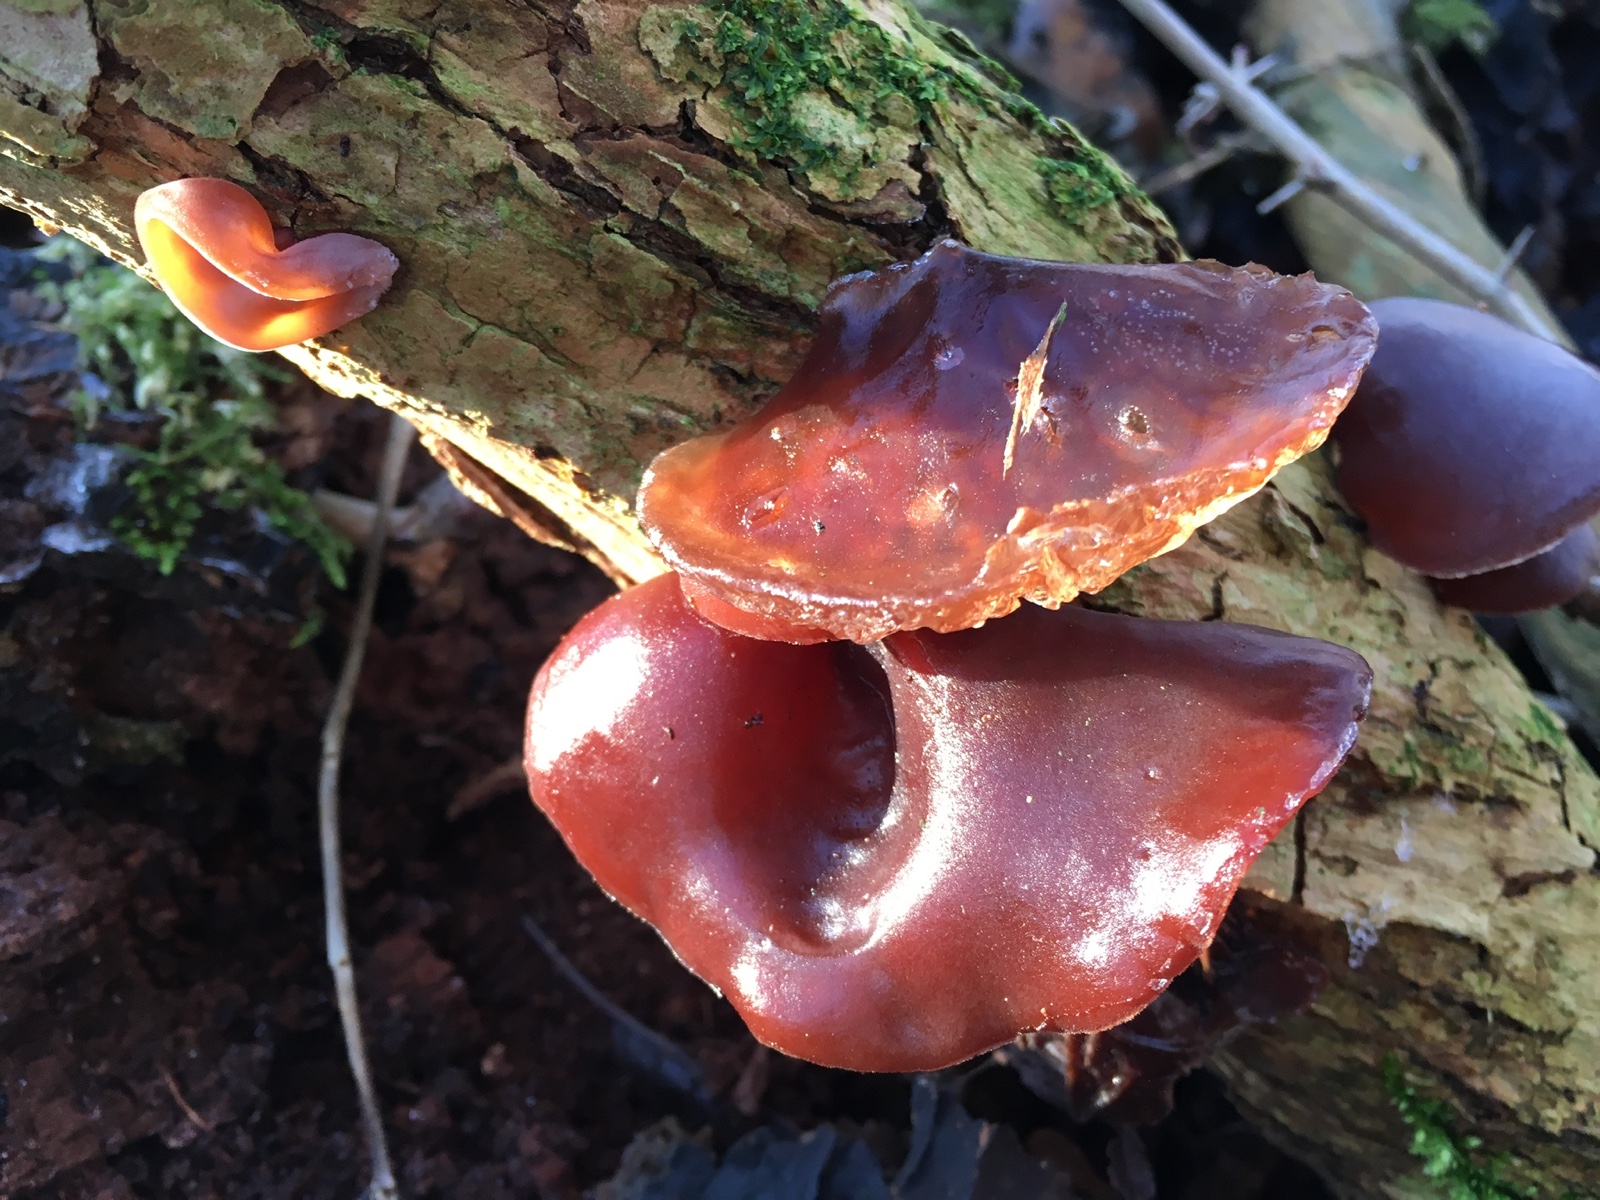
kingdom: Fungi
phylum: Basidiomycota
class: Agaricomycetes
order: Auriculariales
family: Auriculariaceae
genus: Auricularia
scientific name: Auricularia auricula-judae
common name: almindelig judasøre
